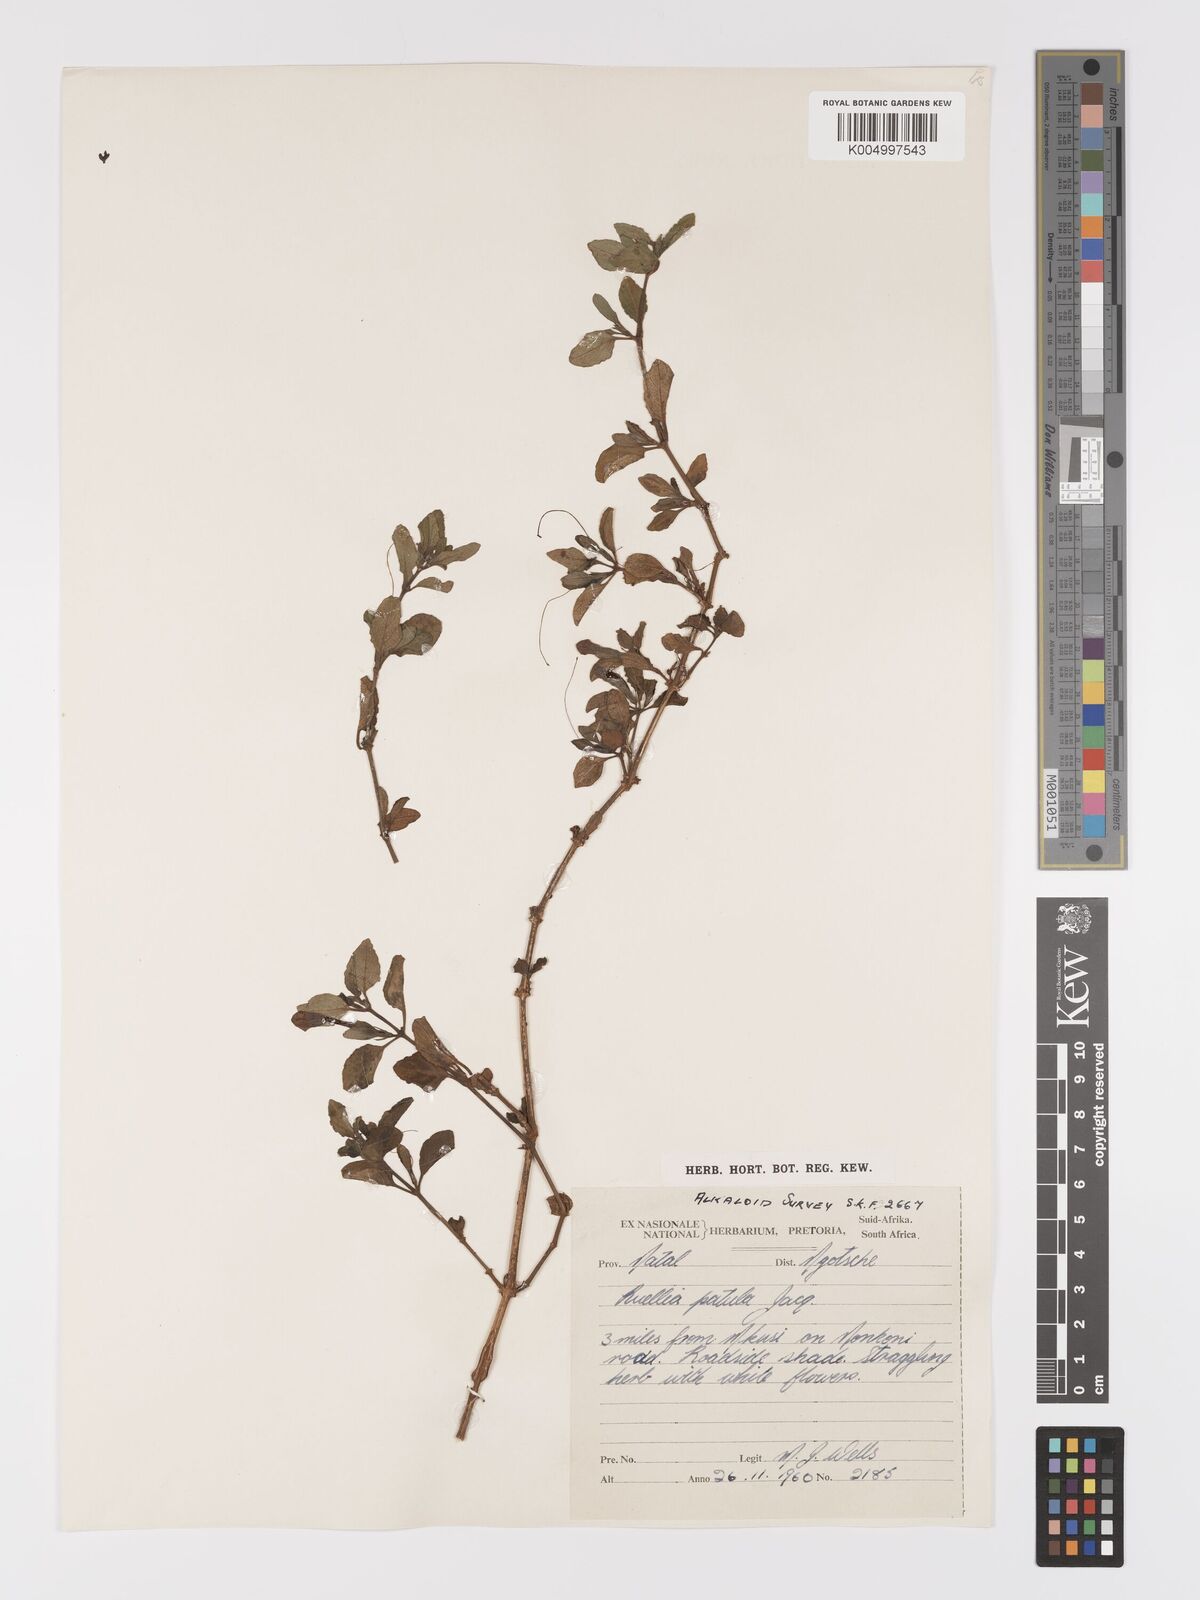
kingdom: Plantae
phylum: Tracheophyta
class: Magnoliopsida
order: Lamiales
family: Acanthaceae
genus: Ruellia
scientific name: Ruellia patula
